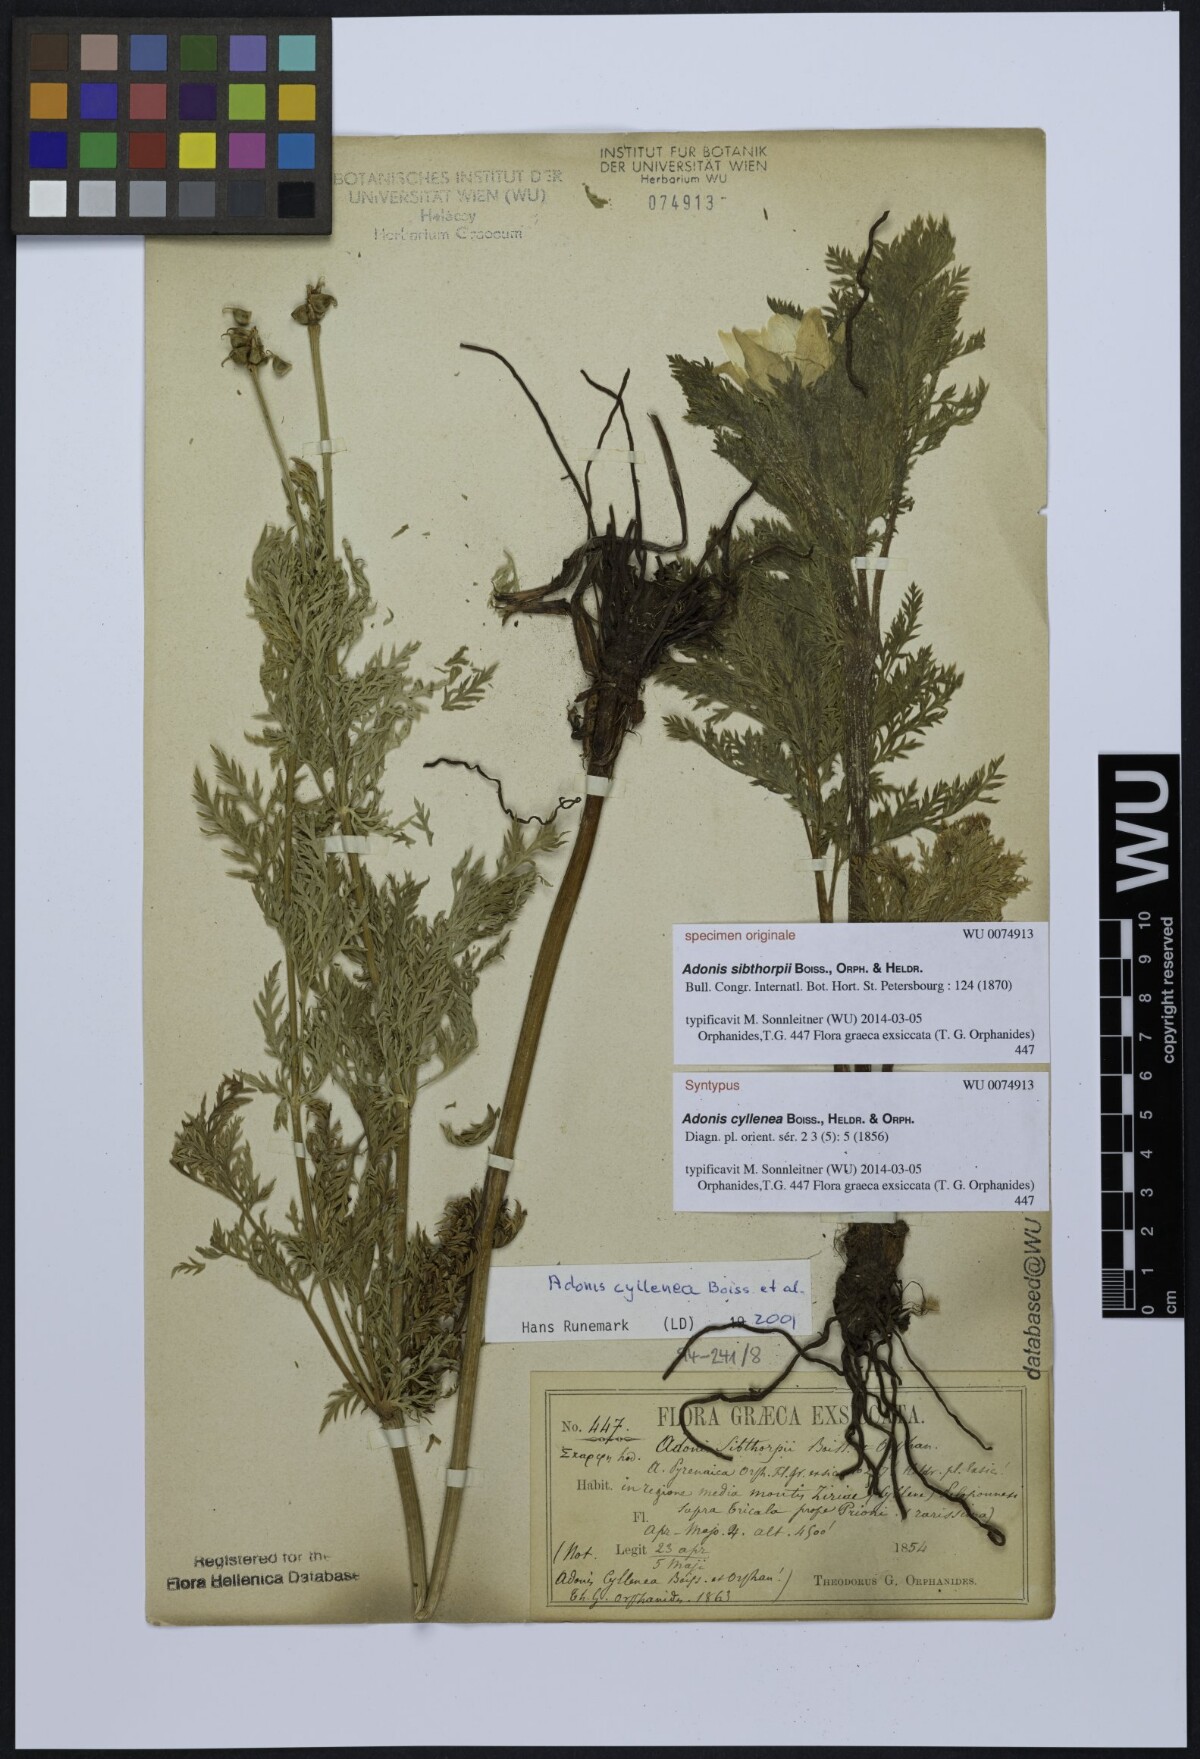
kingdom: Plantae
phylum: Tracheophyta
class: Magnoliopsida
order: Ranunculales
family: Ranunculaceae
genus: Adonis
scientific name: Adonis cyllenea
